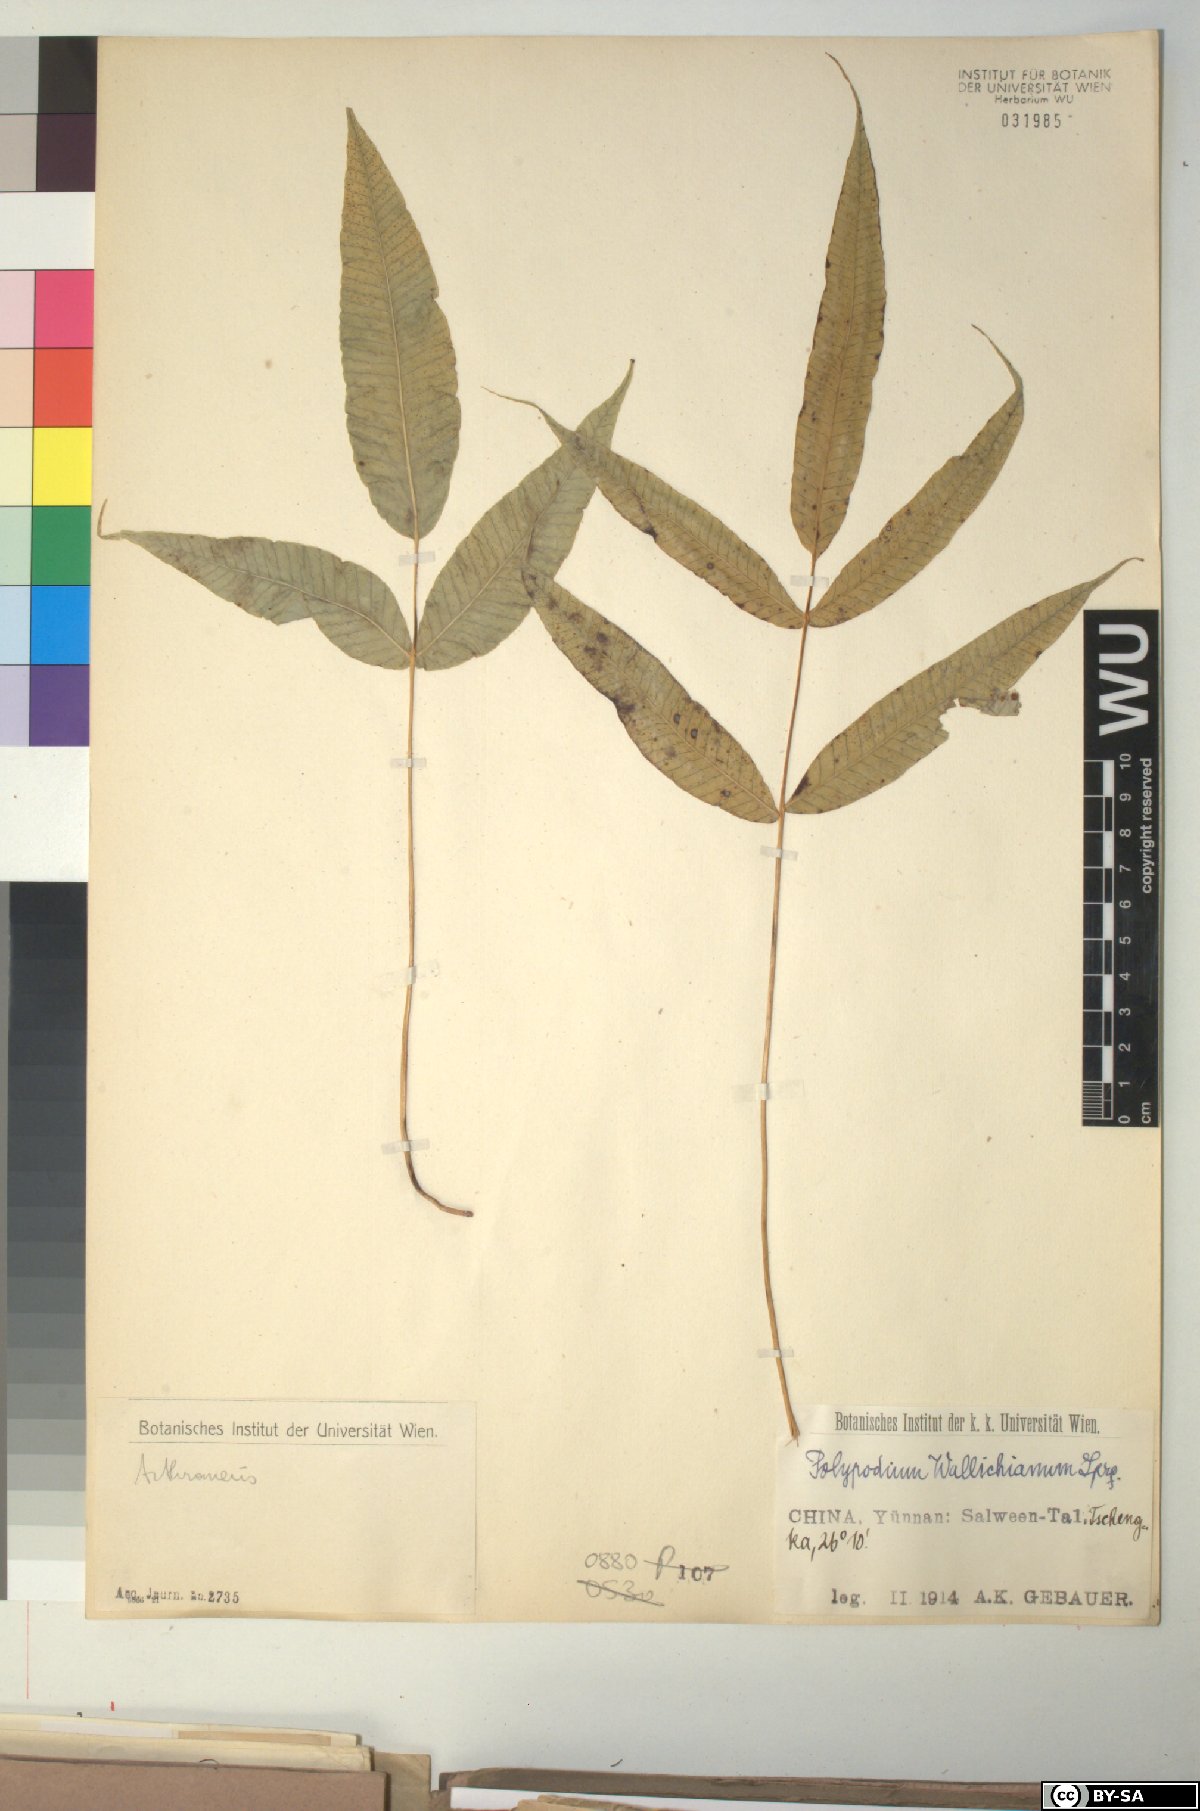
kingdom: Plantae
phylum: Tracheophyta
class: Polypodiopsida
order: Polypodiales
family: Polypodiaceae
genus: Selliguea
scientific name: Selliguea capitellata
